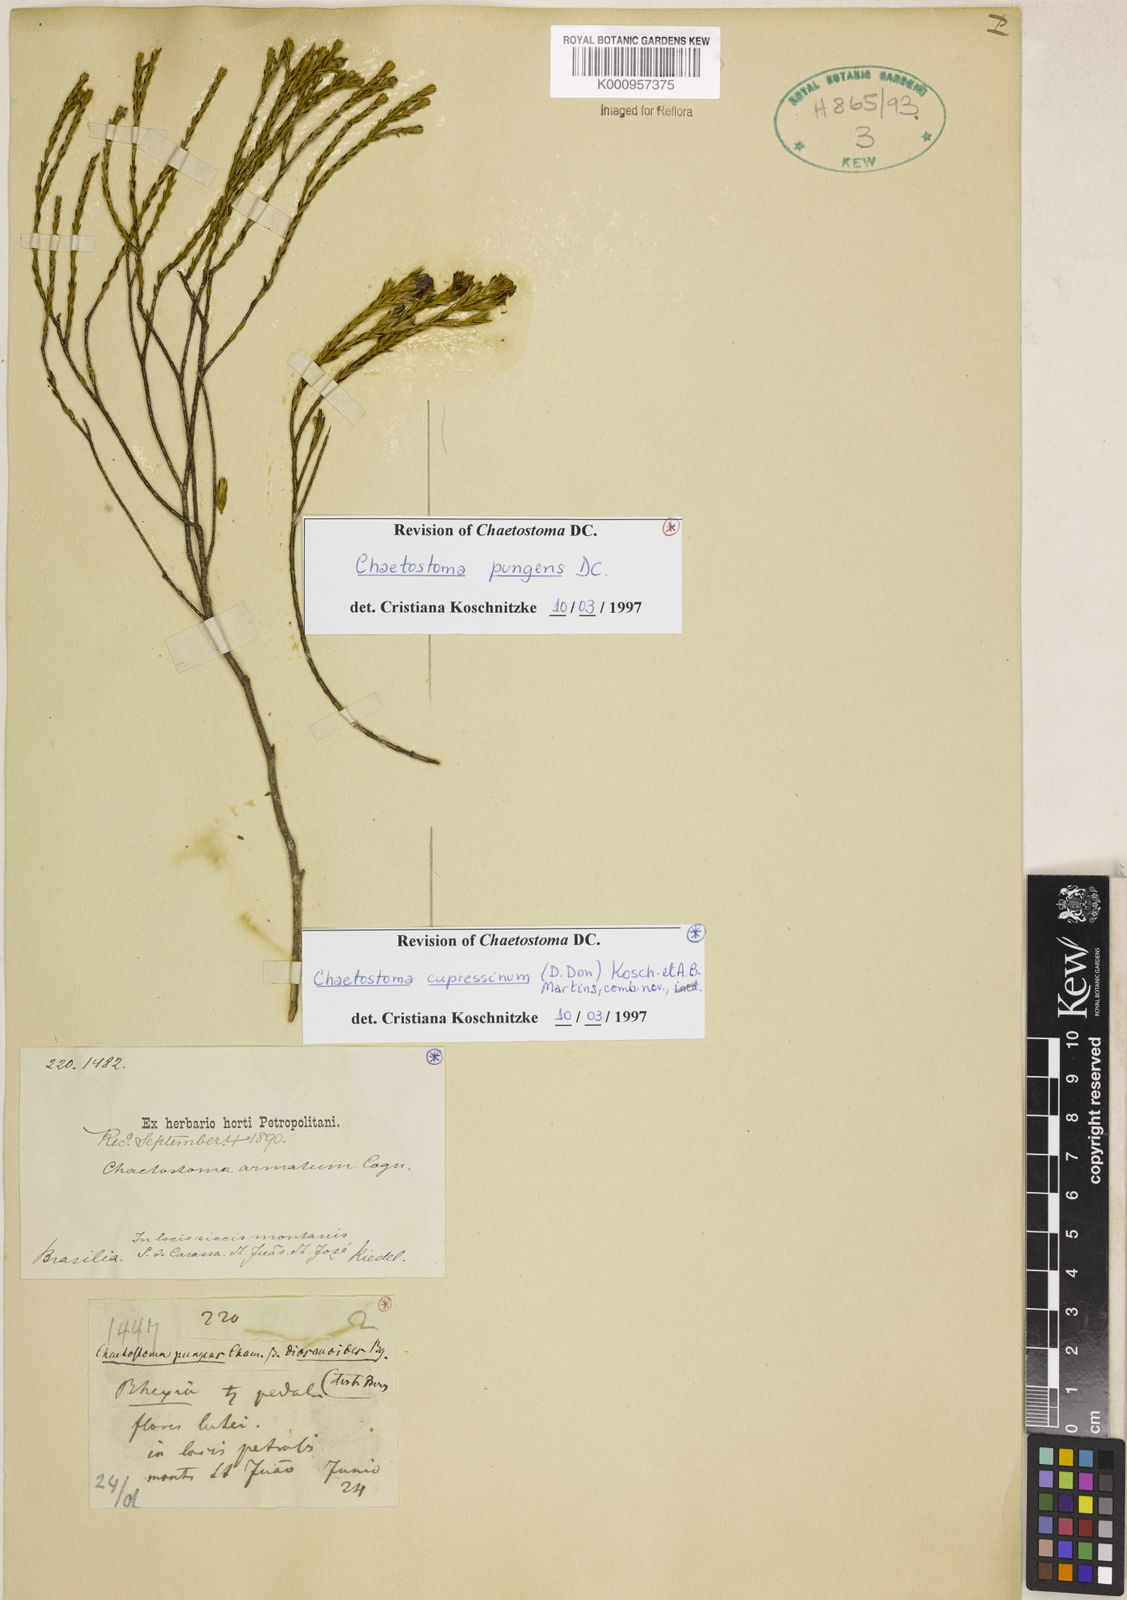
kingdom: Plantae
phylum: Tracheophyta
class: Magnoliopsida
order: Myrtales
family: Melastomataceae
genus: Microlicia
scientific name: Microlicia cupressina
